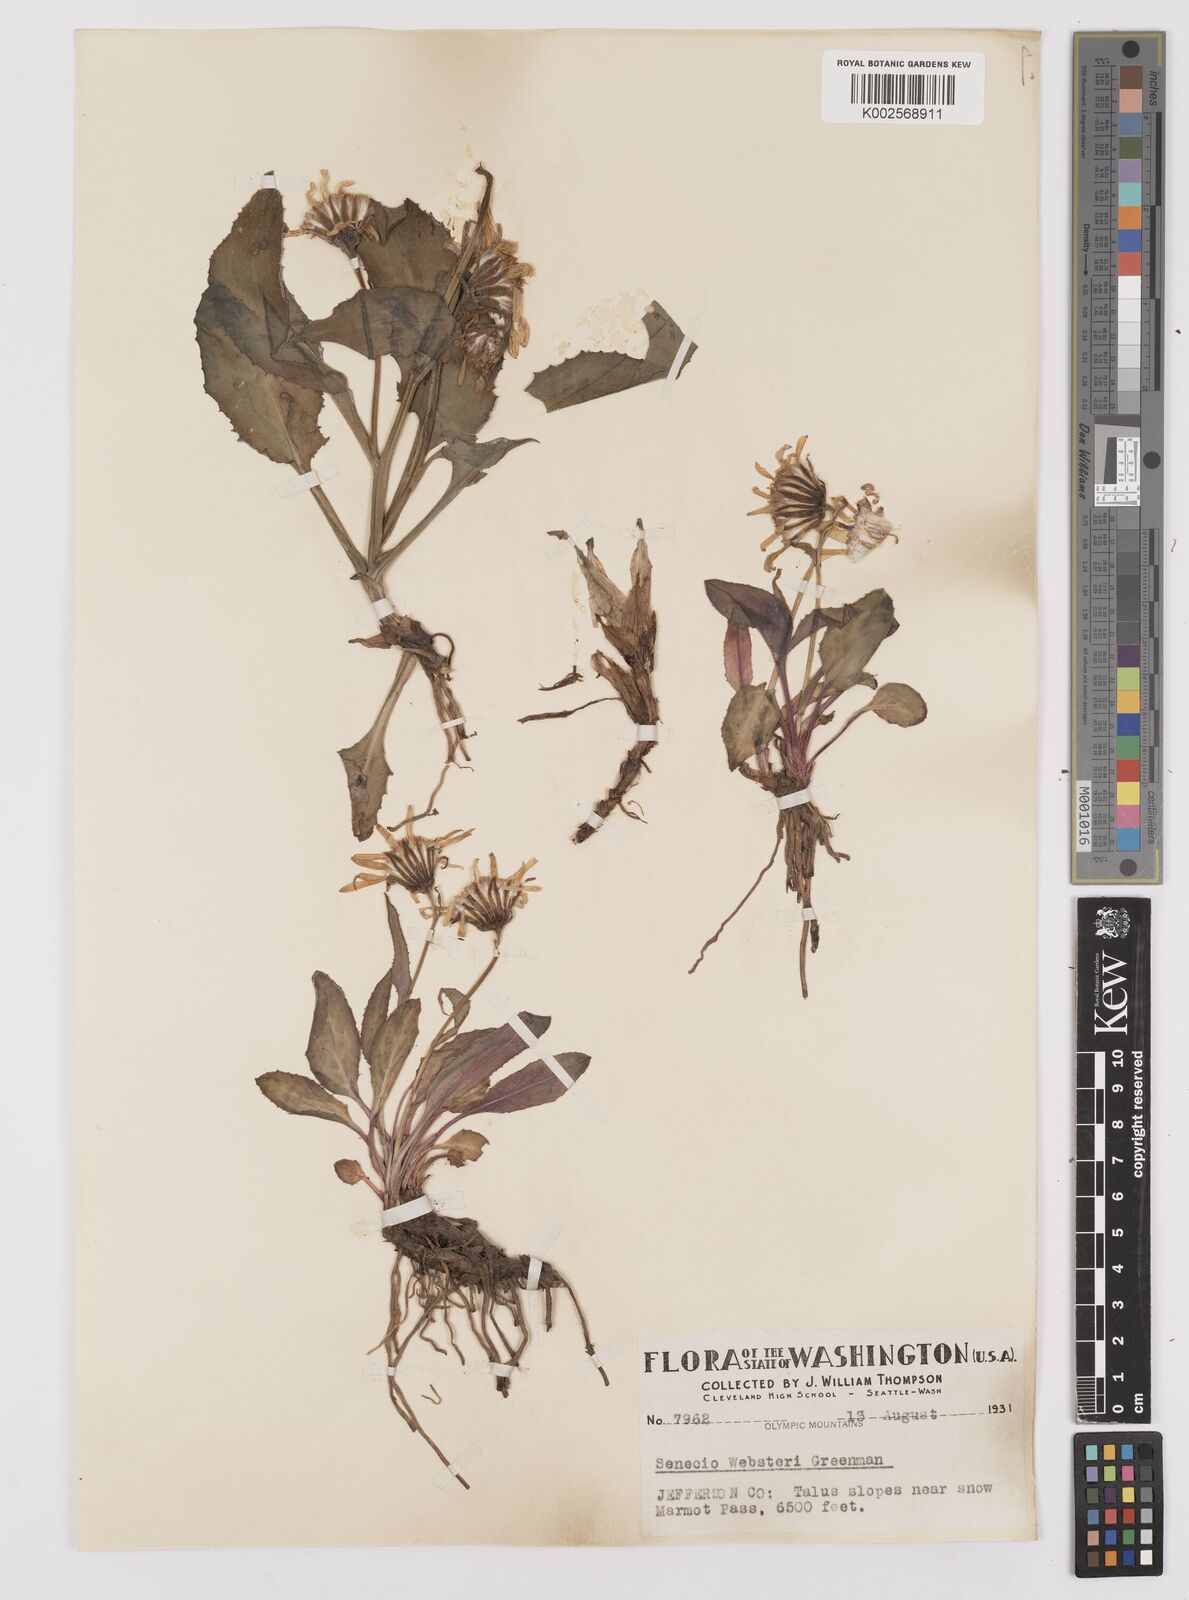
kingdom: Plantae
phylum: Tracheophyta
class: Magnoliopsida
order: Asterales
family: Asteraceae
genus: Senecio
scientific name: Senecio neowebsteri
